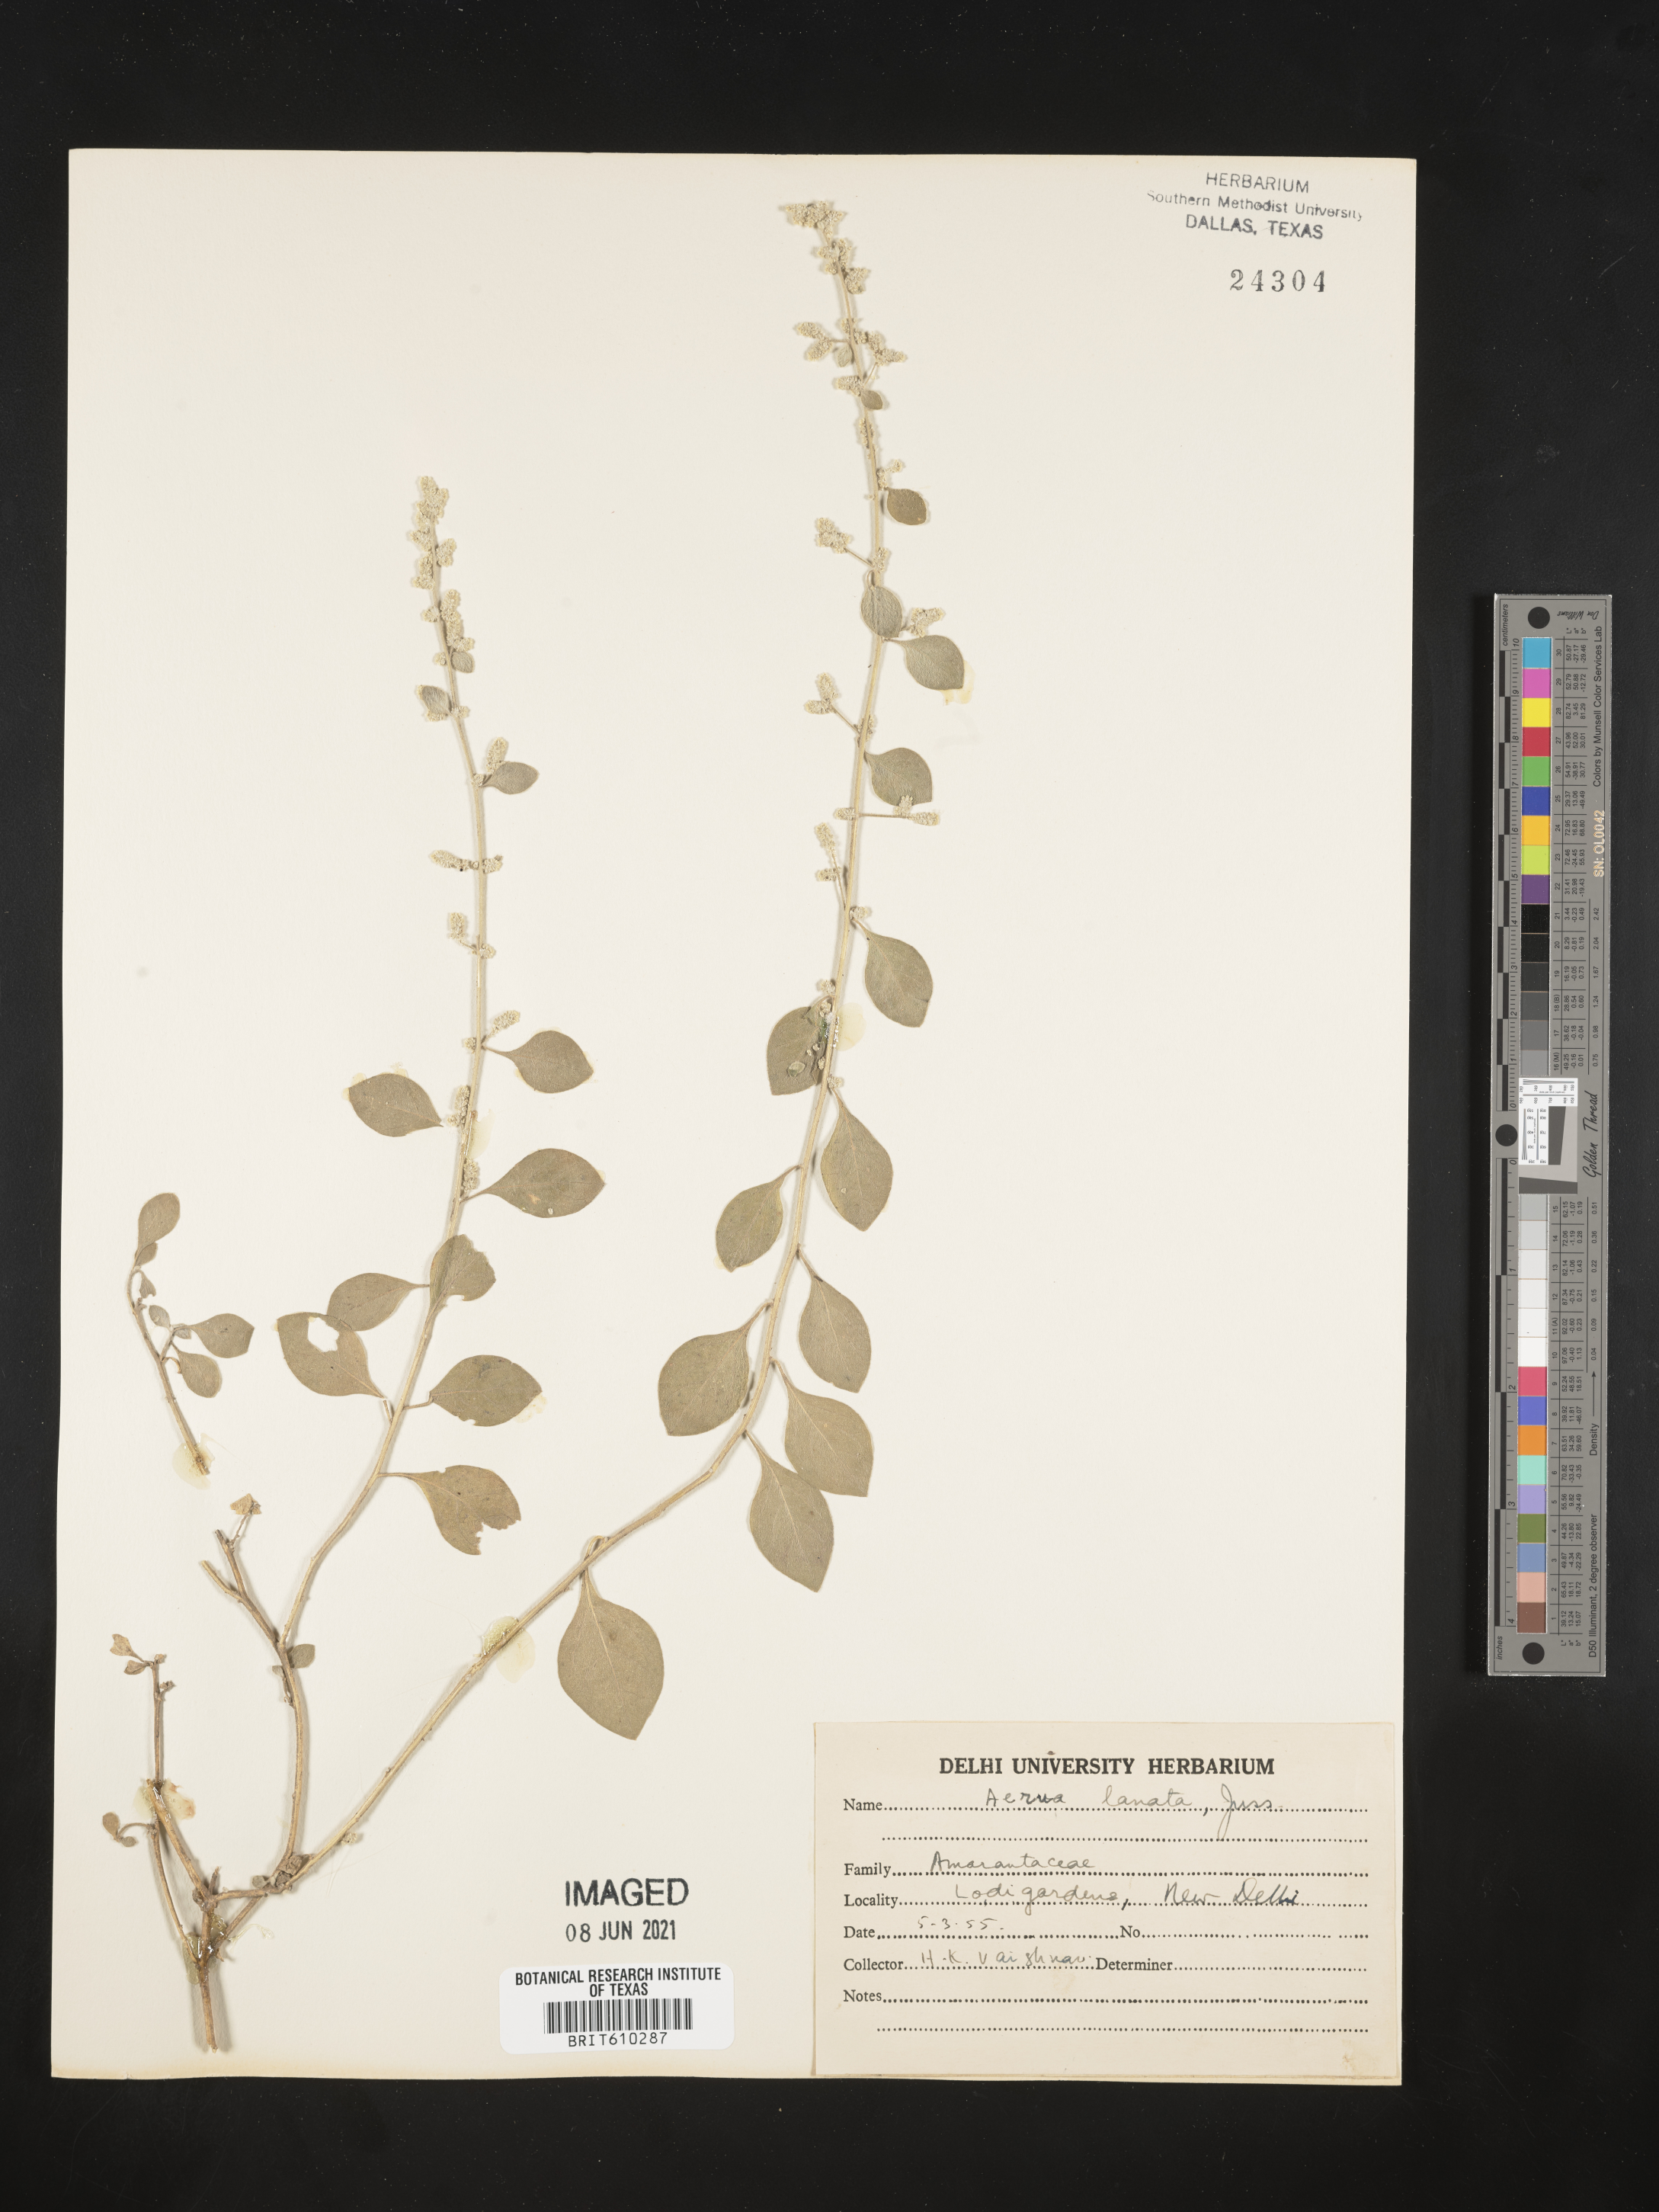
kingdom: Plantae
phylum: Tracheophyta
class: Magnoliopsida
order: Caryophyllales
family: Amaranthaceae
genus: Ouret
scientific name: Ouret lanata
